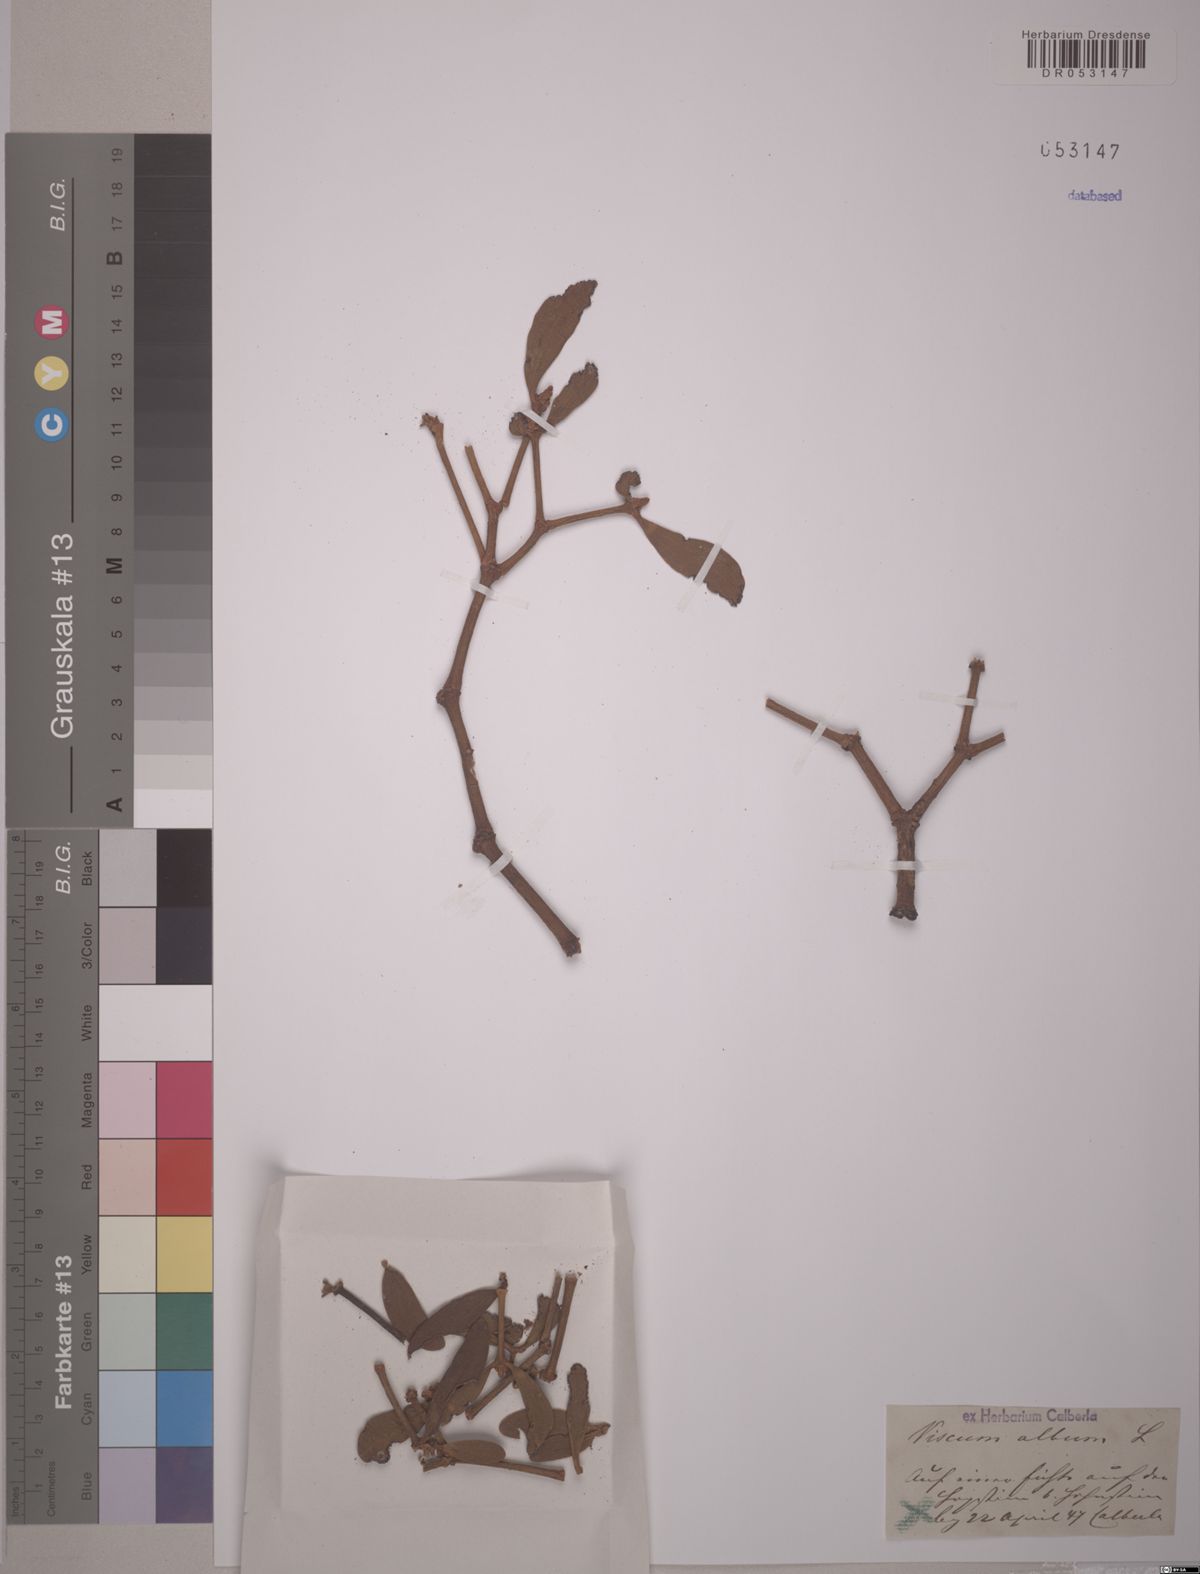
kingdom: Plantae
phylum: Tracheophyta
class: Magnoliopsida
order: Santalales
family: Viscaceae
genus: Viscum
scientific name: Viscum album
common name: Mistletoe
